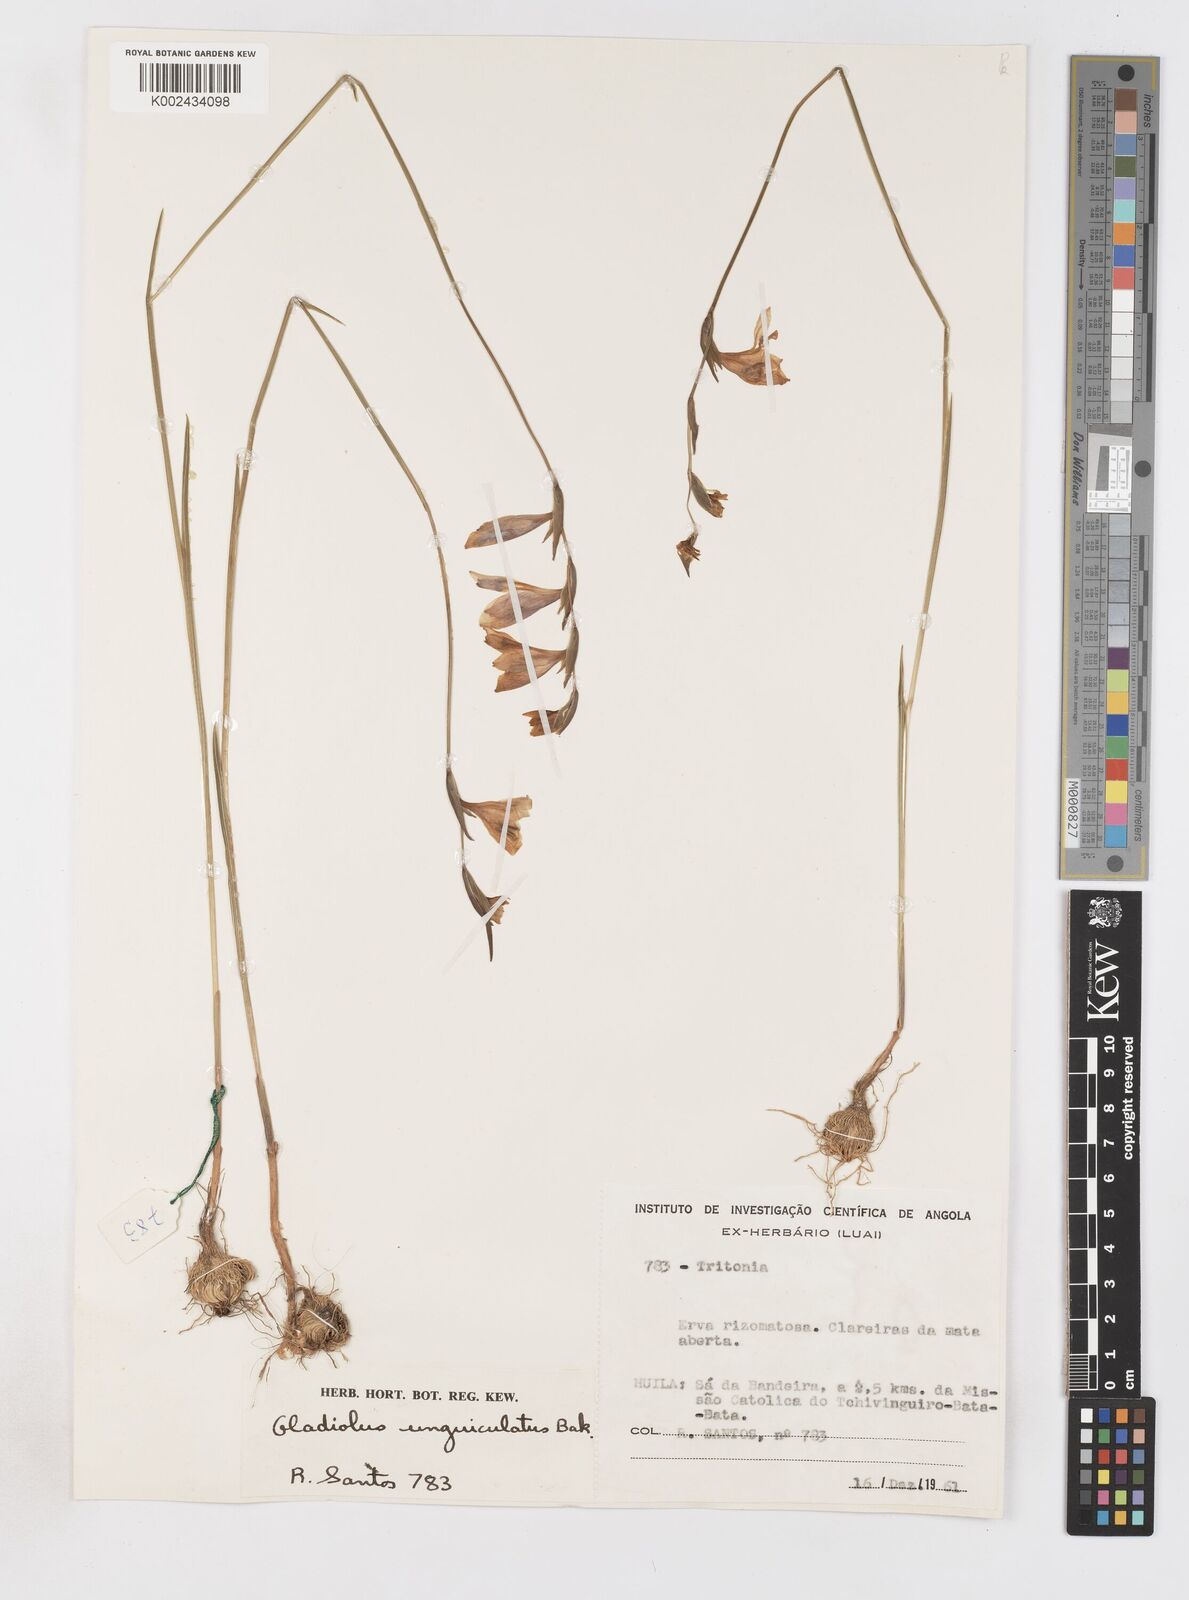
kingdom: Plantae
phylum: Tracheophyta
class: Liliopsida
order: Asparagales
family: Iridaceae
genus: Gladiolus
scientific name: Gladiolus atropurpureus
